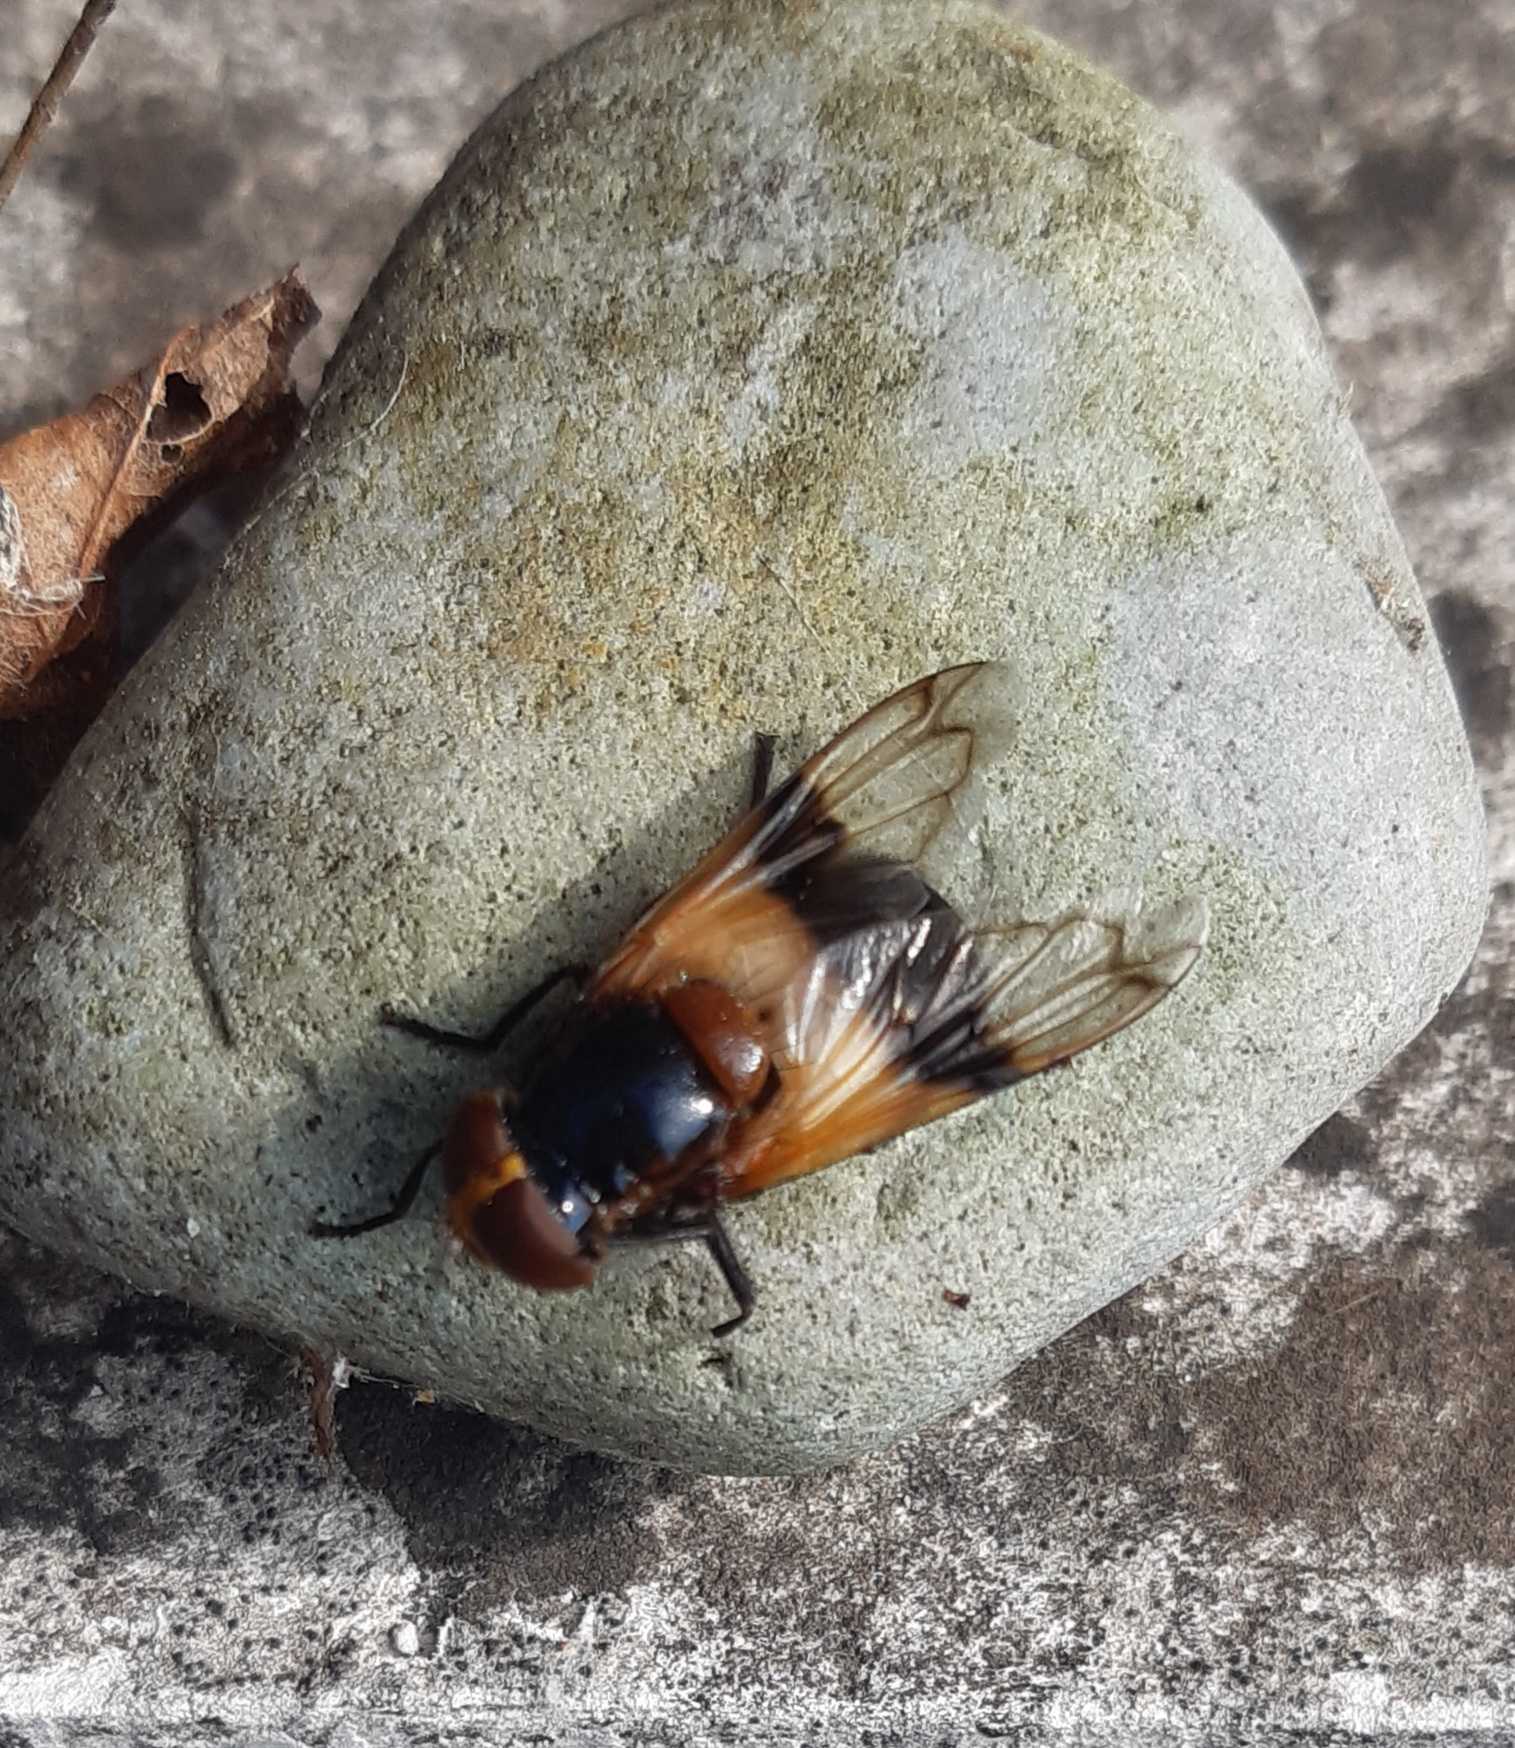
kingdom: Animalia
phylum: Arthropoda
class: Insecta
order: Diptera
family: Syrphidae
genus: Volucella
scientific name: Volucella pellucens
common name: Hvidbåndet humlesvirreflue
